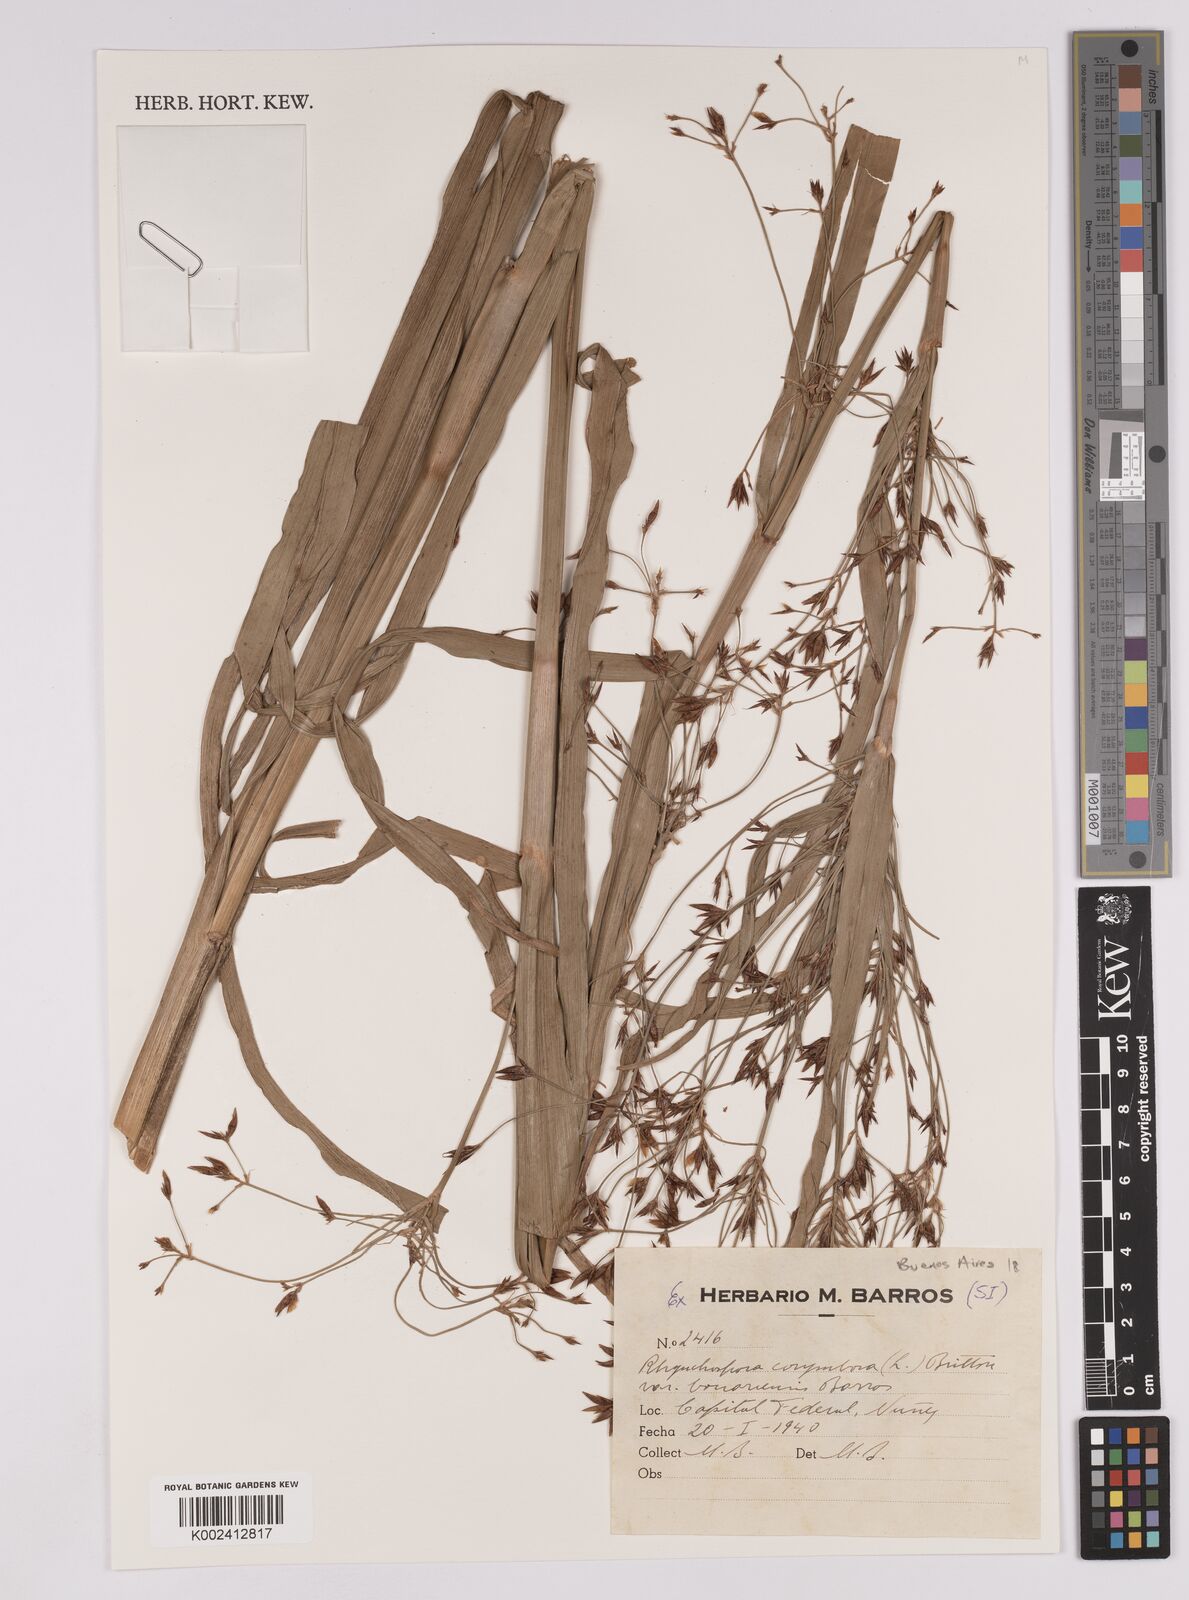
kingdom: Plantae
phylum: Tracheophyta
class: Liliopsida
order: Poales
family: Cyperaceae
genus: Rhynchospora
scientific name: Rhynchospora corymbosa
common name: Golden beak sedge
